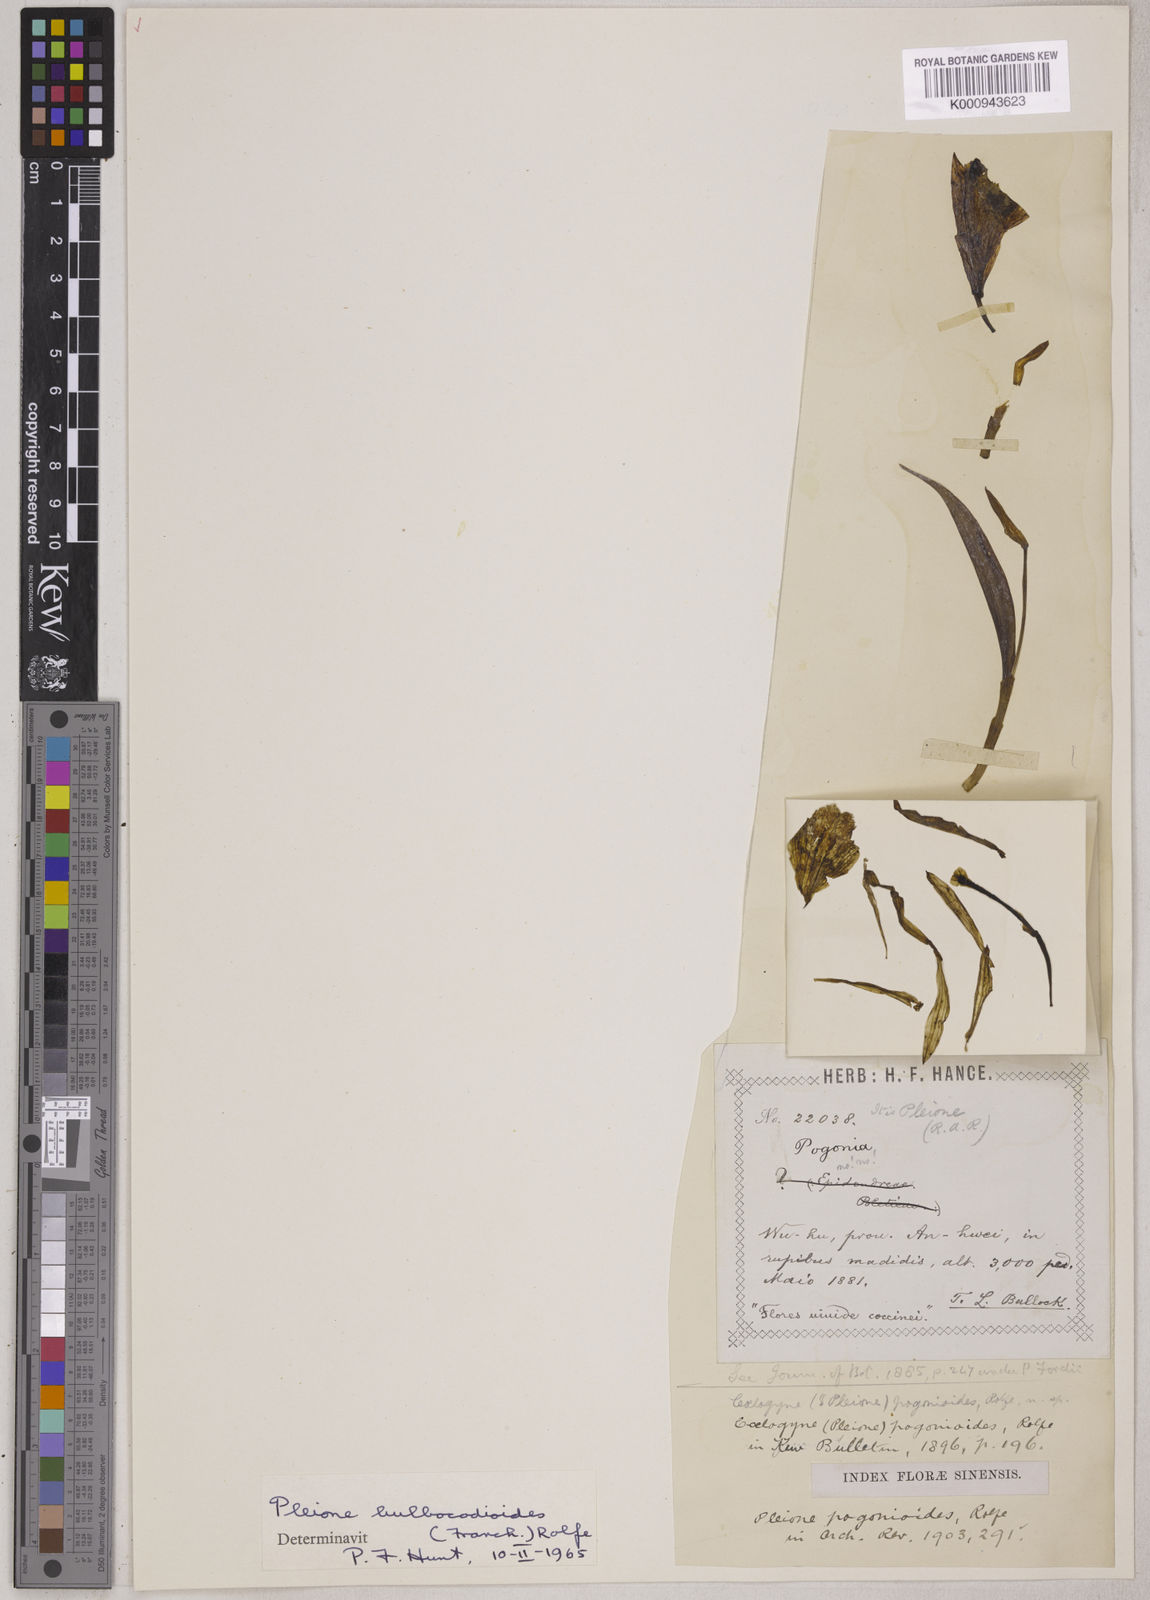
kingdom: Plantae
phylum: Tracheophyta
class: Liliopsida
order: Asparagales
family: Orchidaceae
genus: Pleione
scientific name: Pleione bulbocodioides
